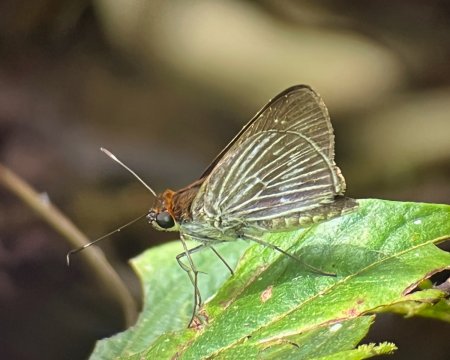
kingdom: Animalia
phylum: Arthropoda
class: Insecta
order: Lepidoptera
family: Hesperiidae
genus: Vettius
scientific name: Vettius artona
